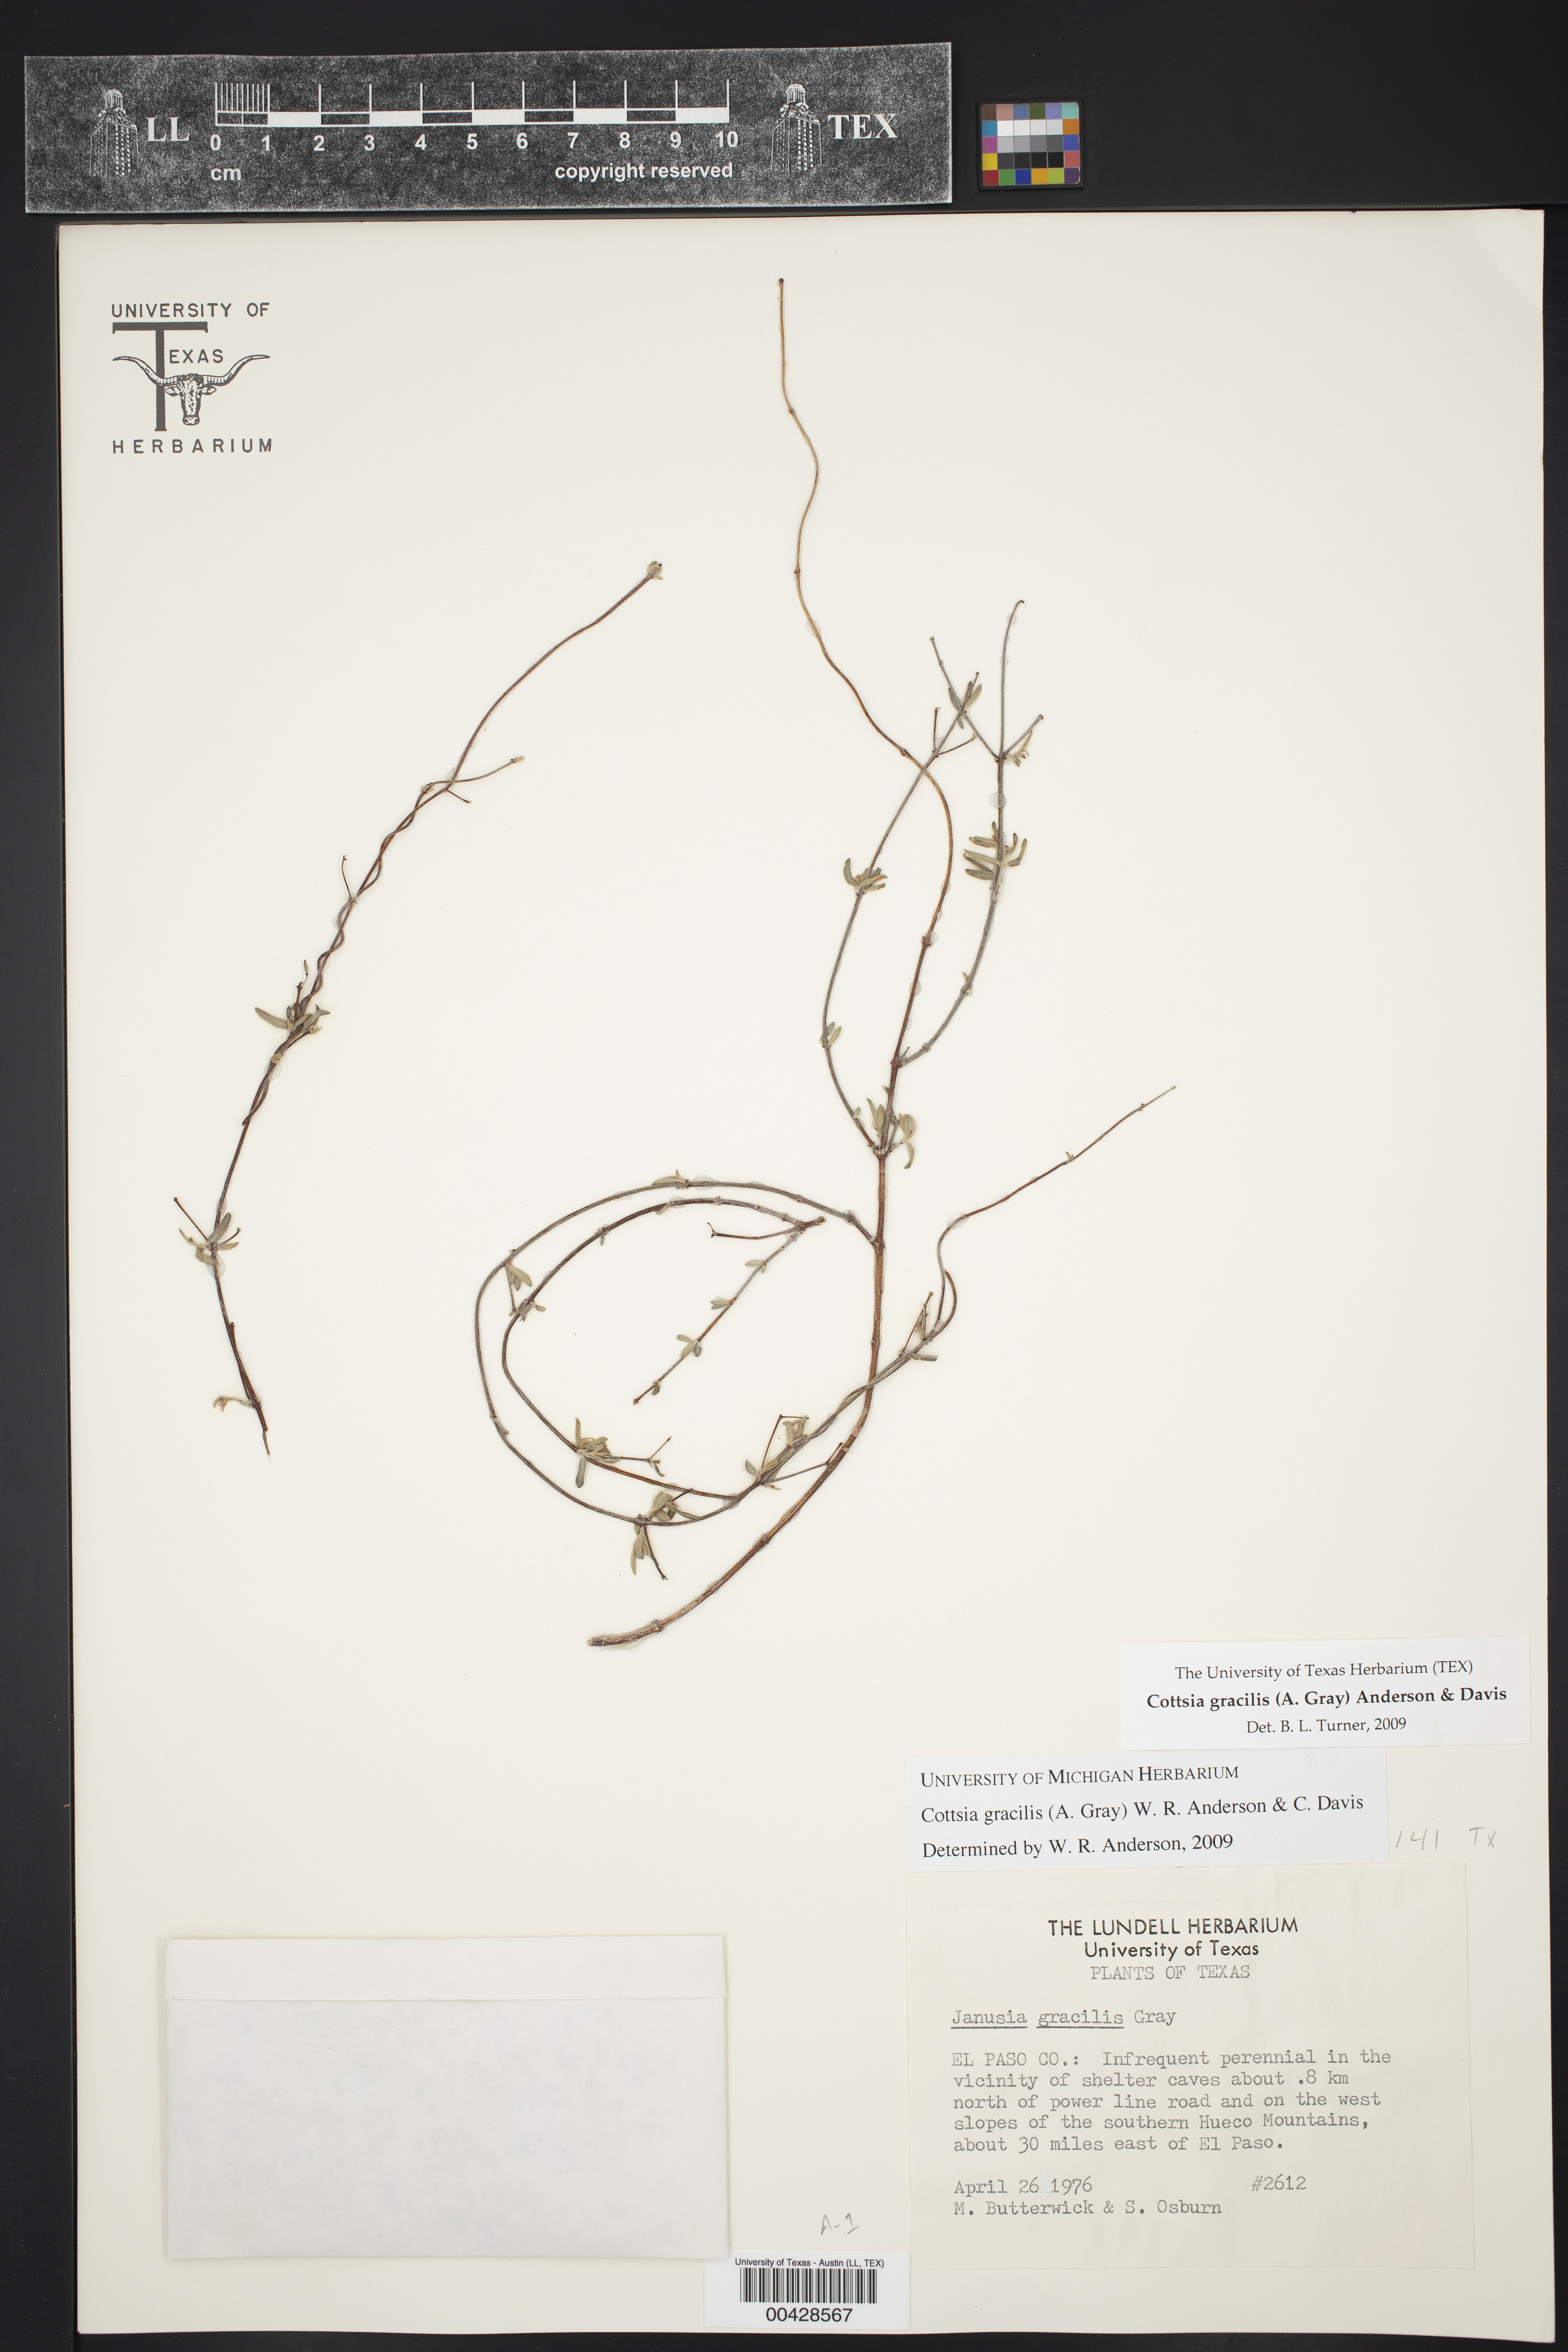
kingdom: Plantae
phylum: Tracheophyta
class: Magnoliopsida
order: Malpighiales
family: Malpighiaceae
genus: Cottsia
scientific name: Cottsia gracilis
